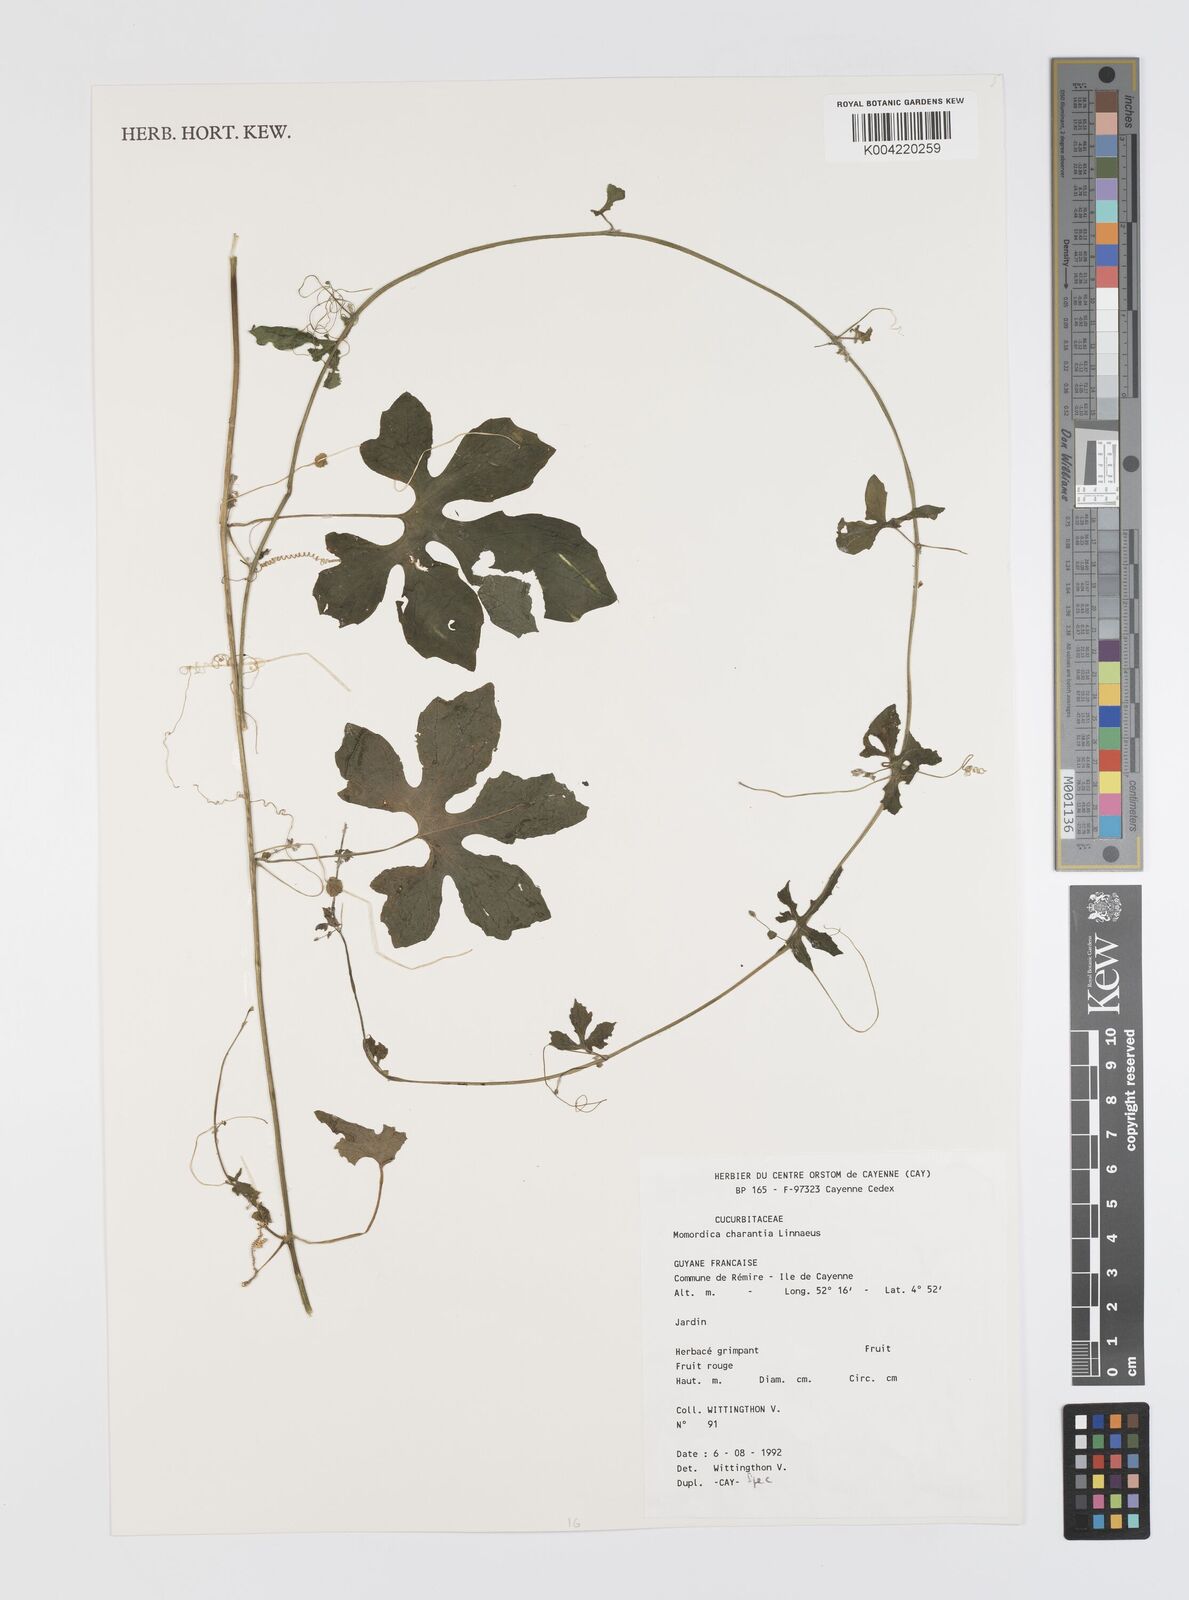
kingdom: Plantae
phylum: Tracheophyta
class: Magnoliopsida
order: Cucurbitales
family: Cucurbitaceae
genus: Momordica
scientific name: Momordica charantia
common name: Balsampear
